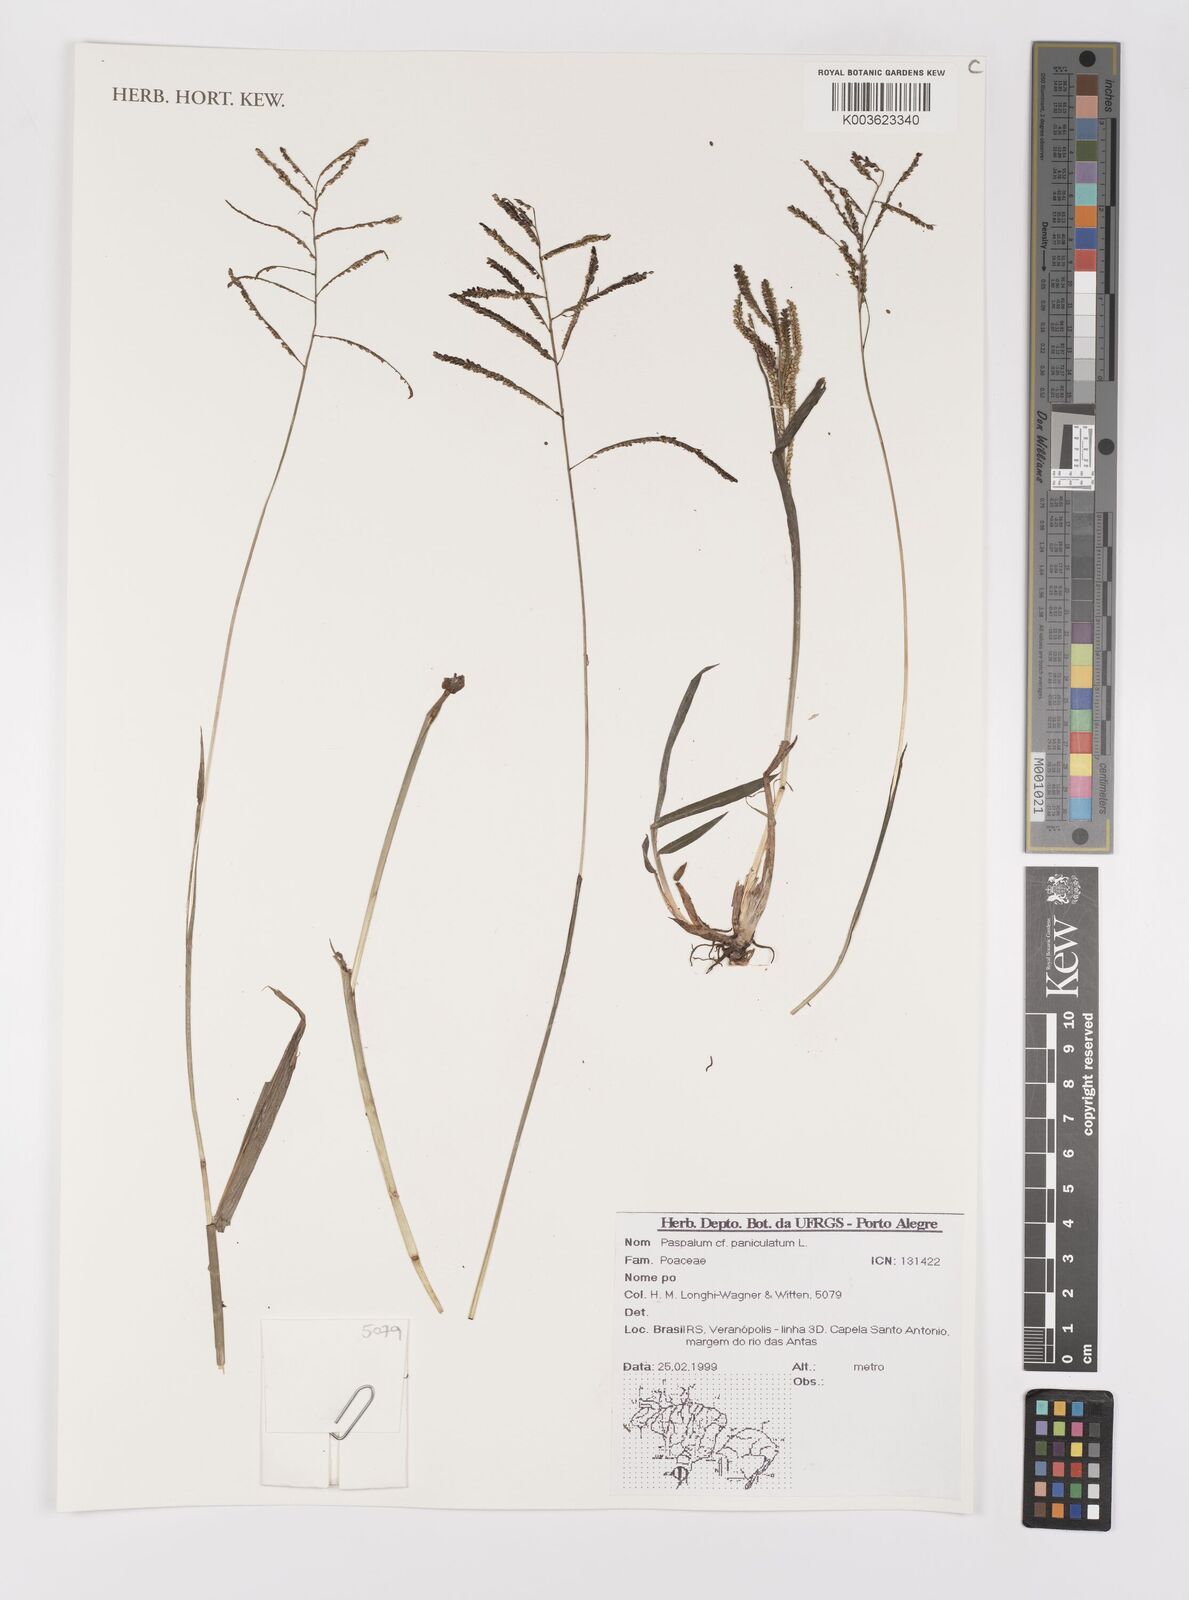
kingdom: Plantae
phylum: Tracheophyta
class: Liliopsida
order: Poales
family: Poaceae
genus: Paspalum
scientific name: Paspalum paniculatum
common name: Arrocillo
